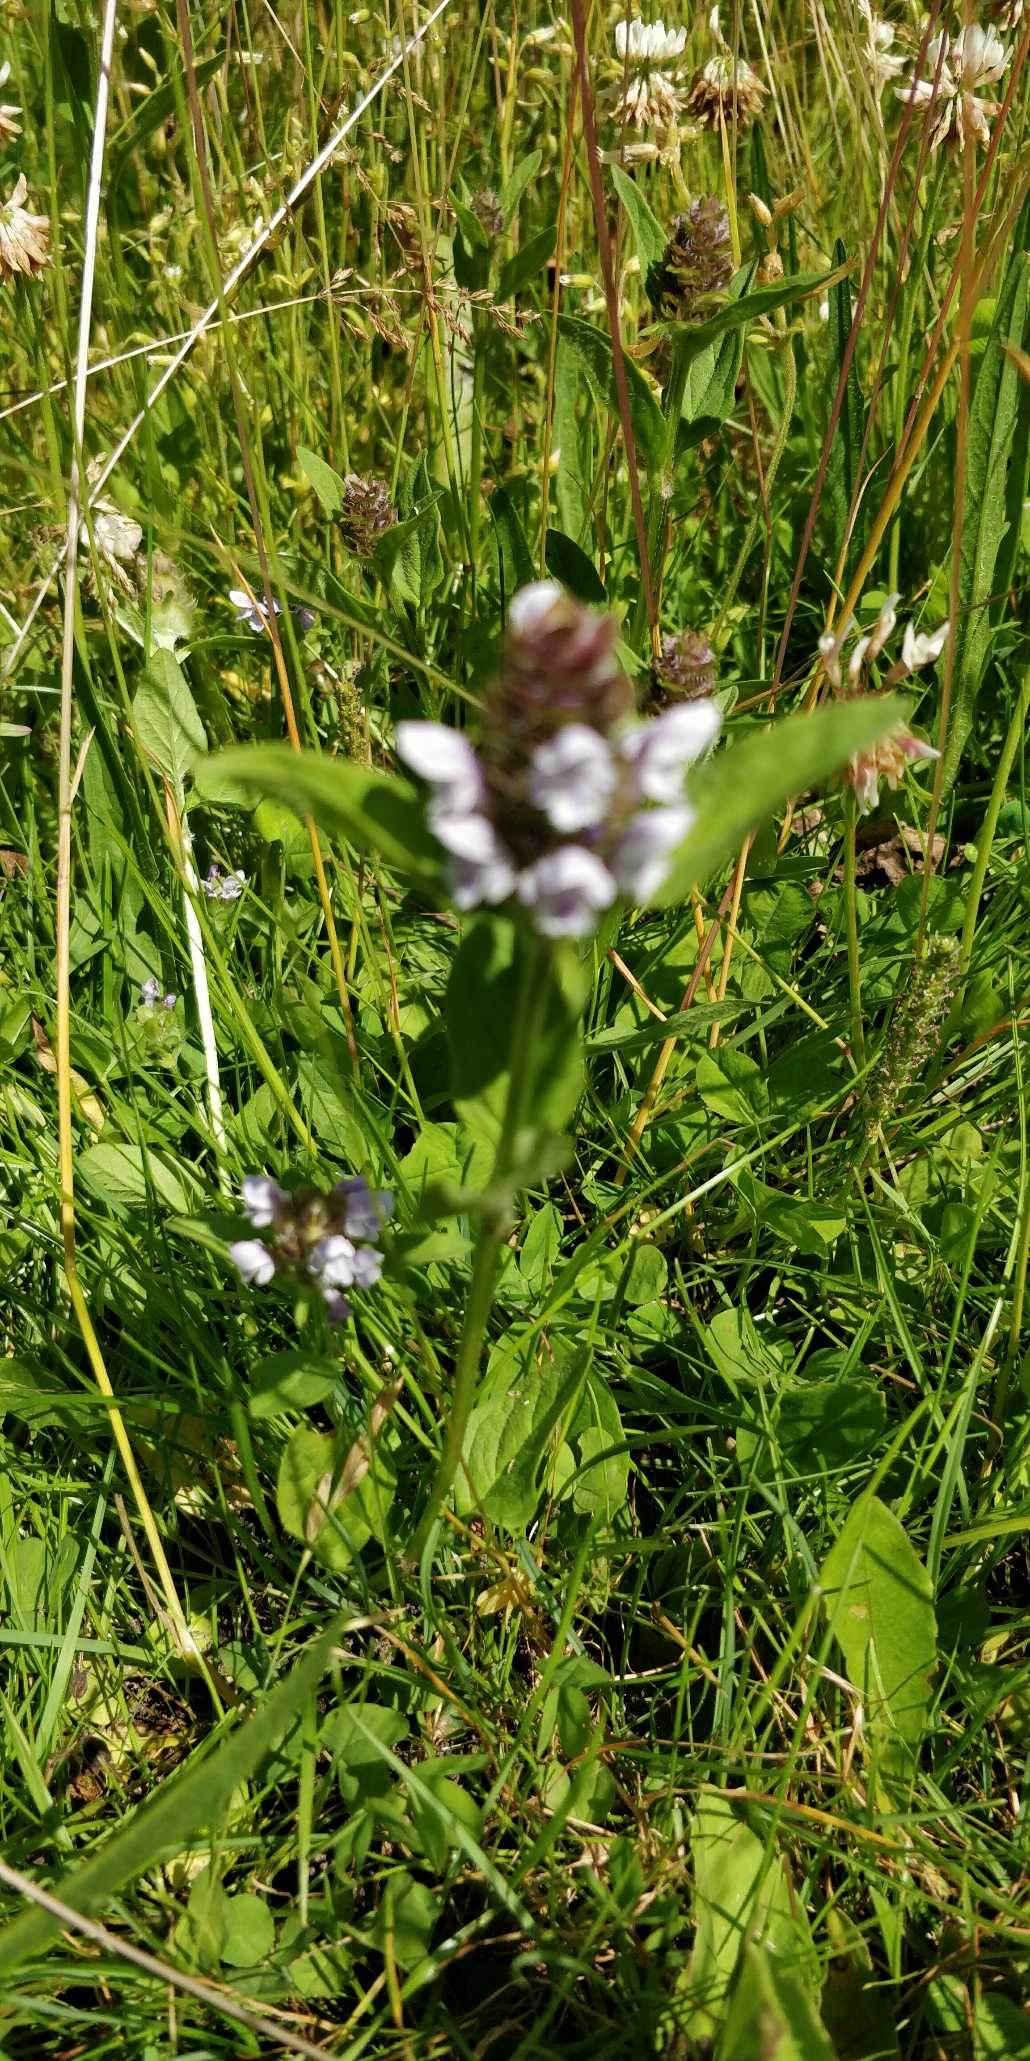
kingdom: Plantae
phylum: Tracheophyta
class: Magnoliopsida
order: Lamiales
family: Lamiaceae
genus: Prunella
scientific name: Prunella vulgaris
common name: Almindelig brunelle
